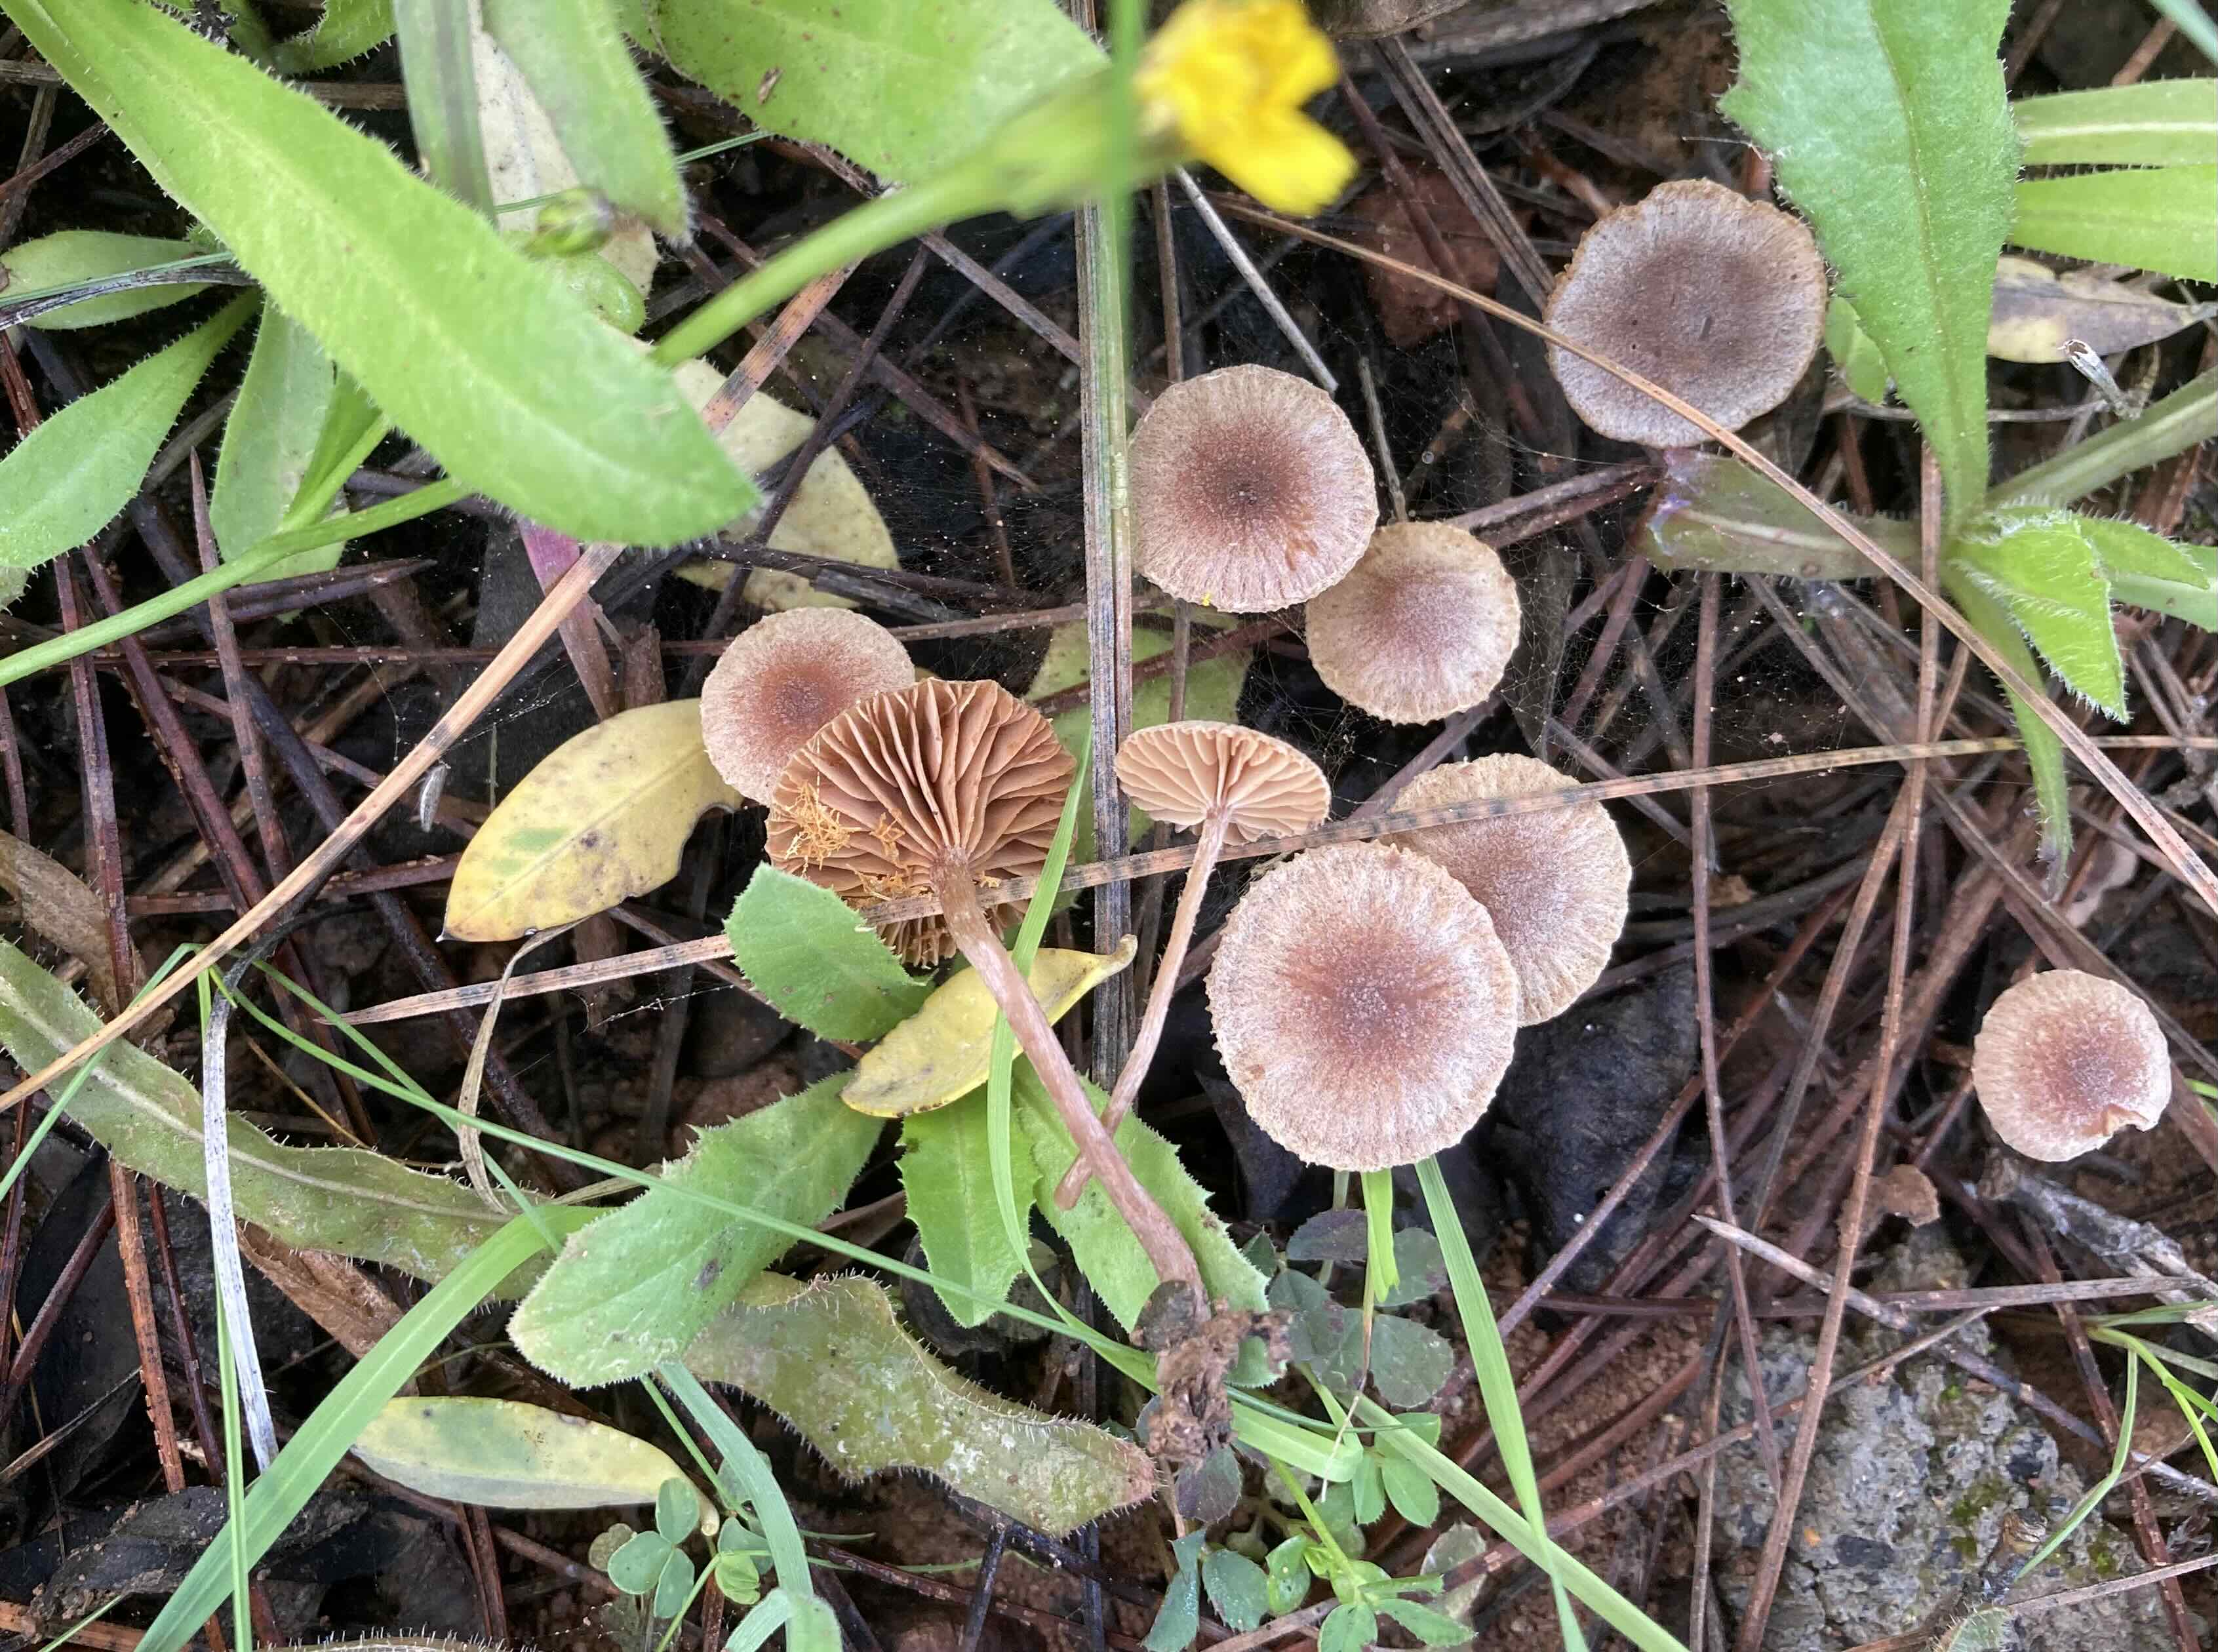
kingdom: Fungi
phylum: Basidiomycota
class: Agaricomycetes
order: Agaricales
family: Tubariaceae
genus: Tubaria
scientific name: Tubaria furfuracea
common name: kliddet fnughat
